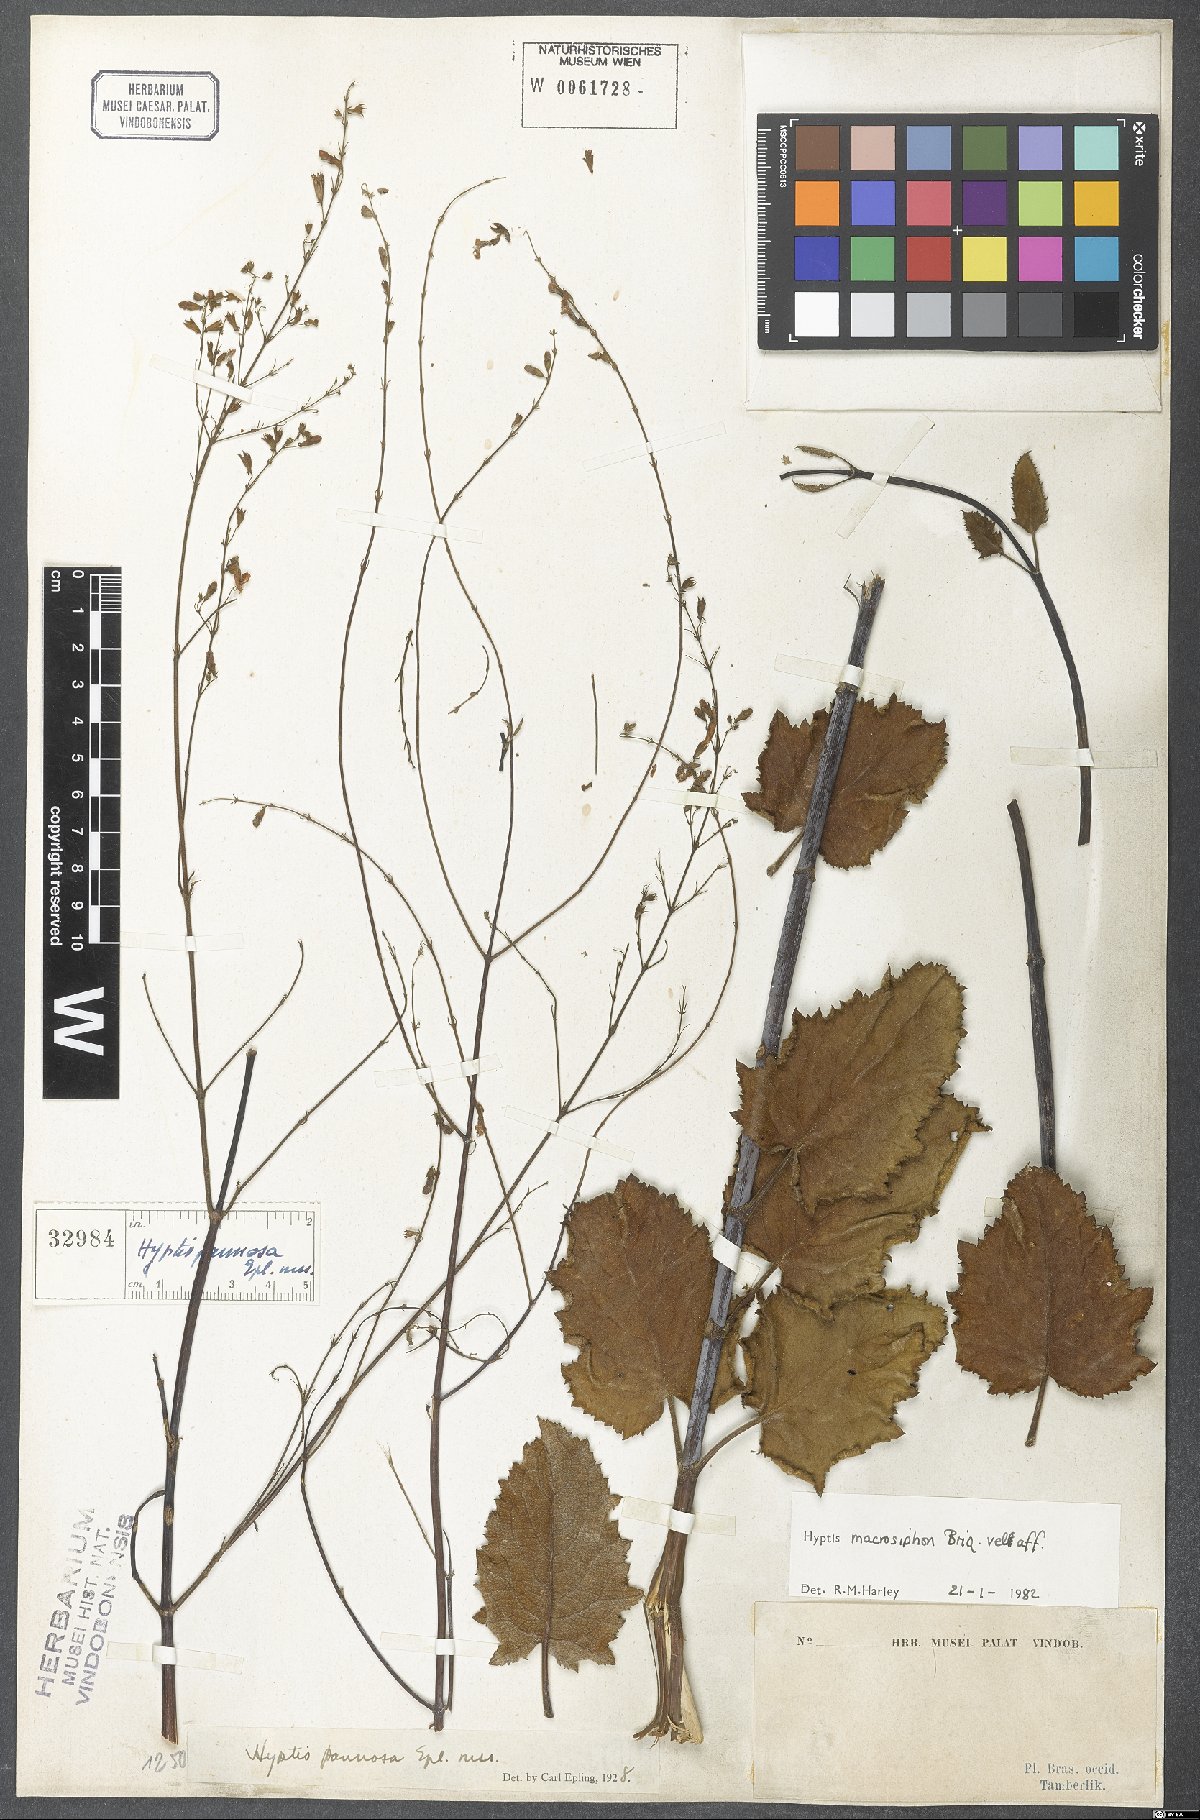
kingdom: Plantae
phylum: Tracheophyta
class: Magnoliopsida
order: Lamiales
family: Lamiaceae
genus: Hypenia
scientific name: Hypenia macrosiphon
